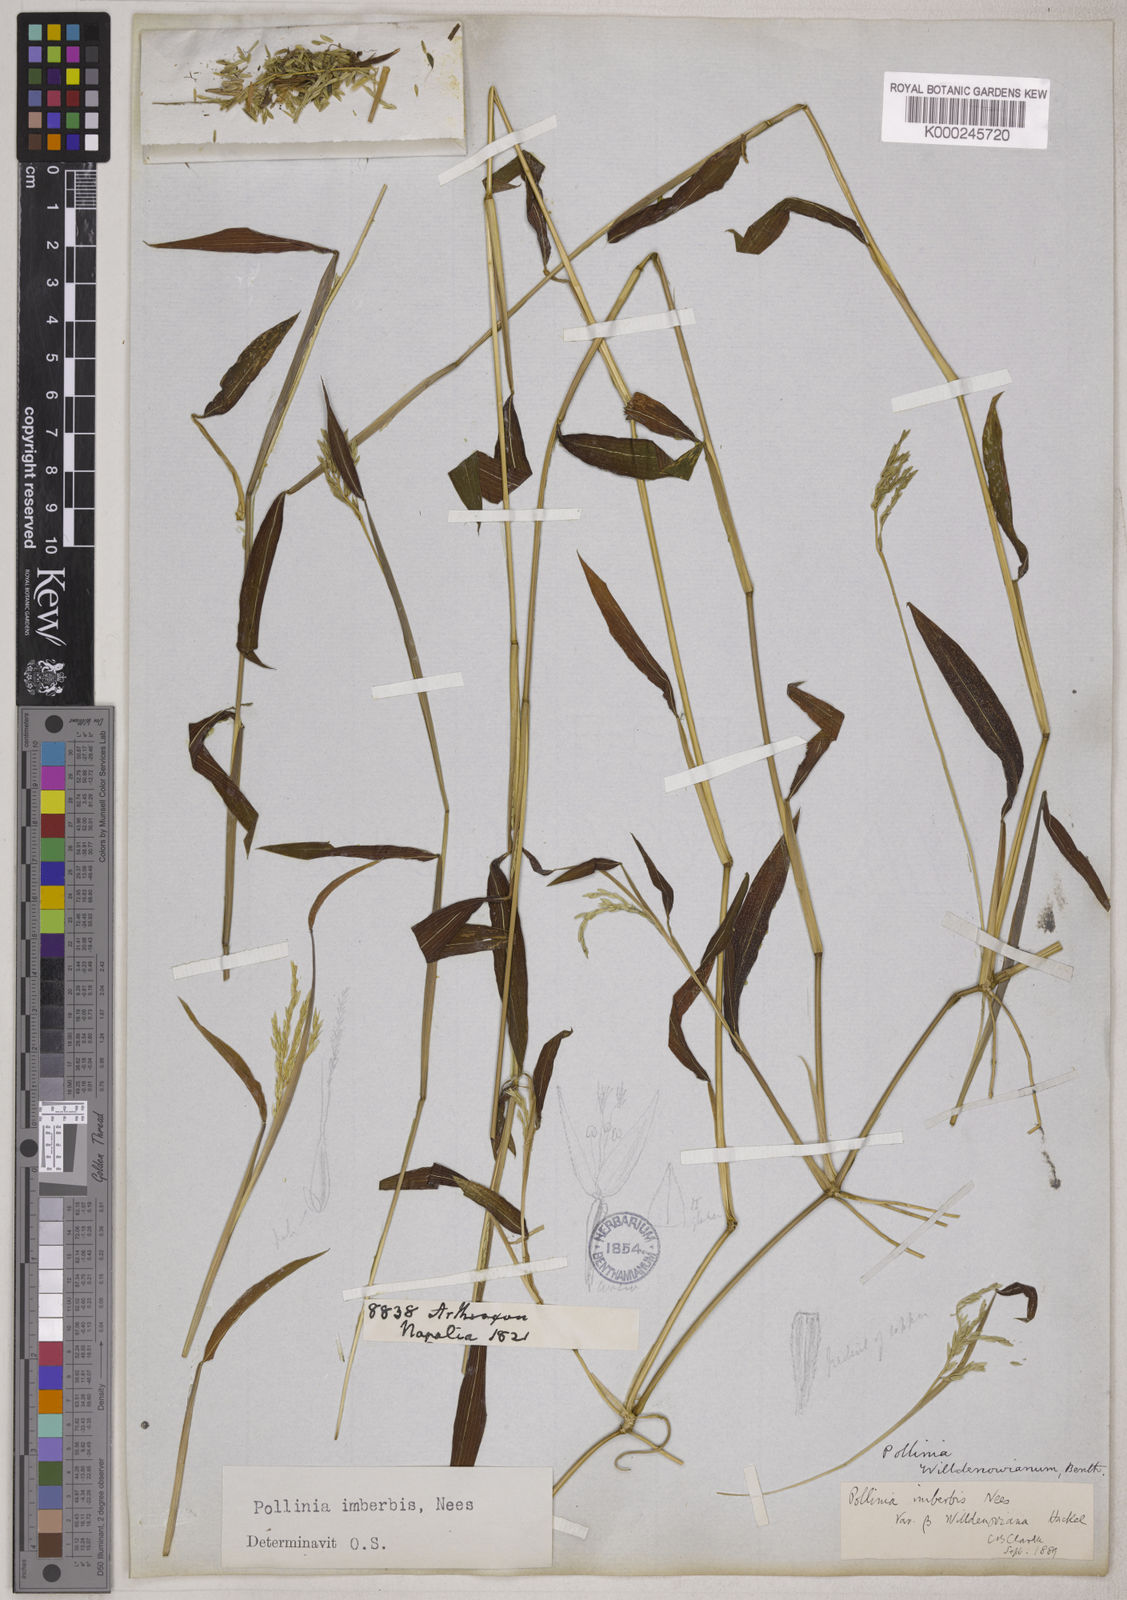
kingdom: Plantae
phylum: Tracheophyta
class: Liliopsida
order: Poales
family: Poaceae
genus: Microstegium
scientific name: Microstegium vimineum
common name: Japanese stiltgrass
